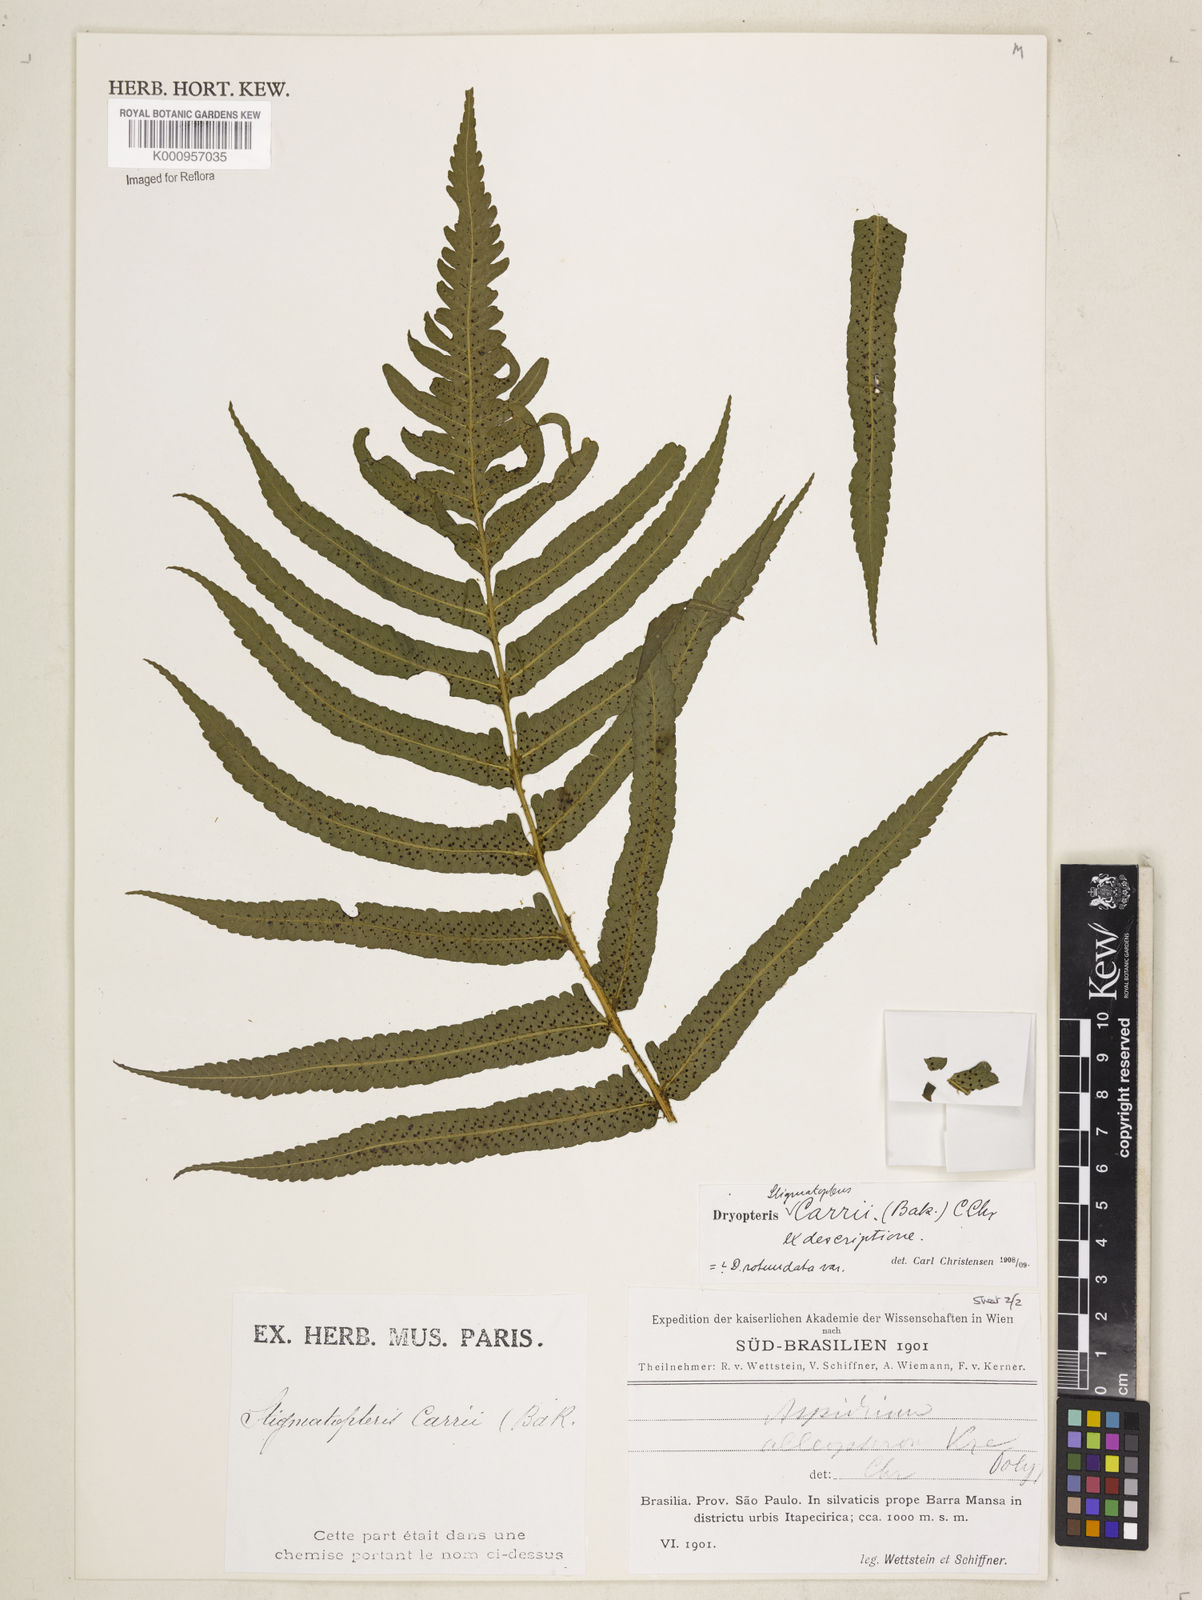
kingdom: Plantae
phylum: Tracheophyta
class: Polypodiopsida
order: Polypodiales
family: Dryopteridaceae
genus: Stigmatopteris
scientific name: Stigmatopteris
